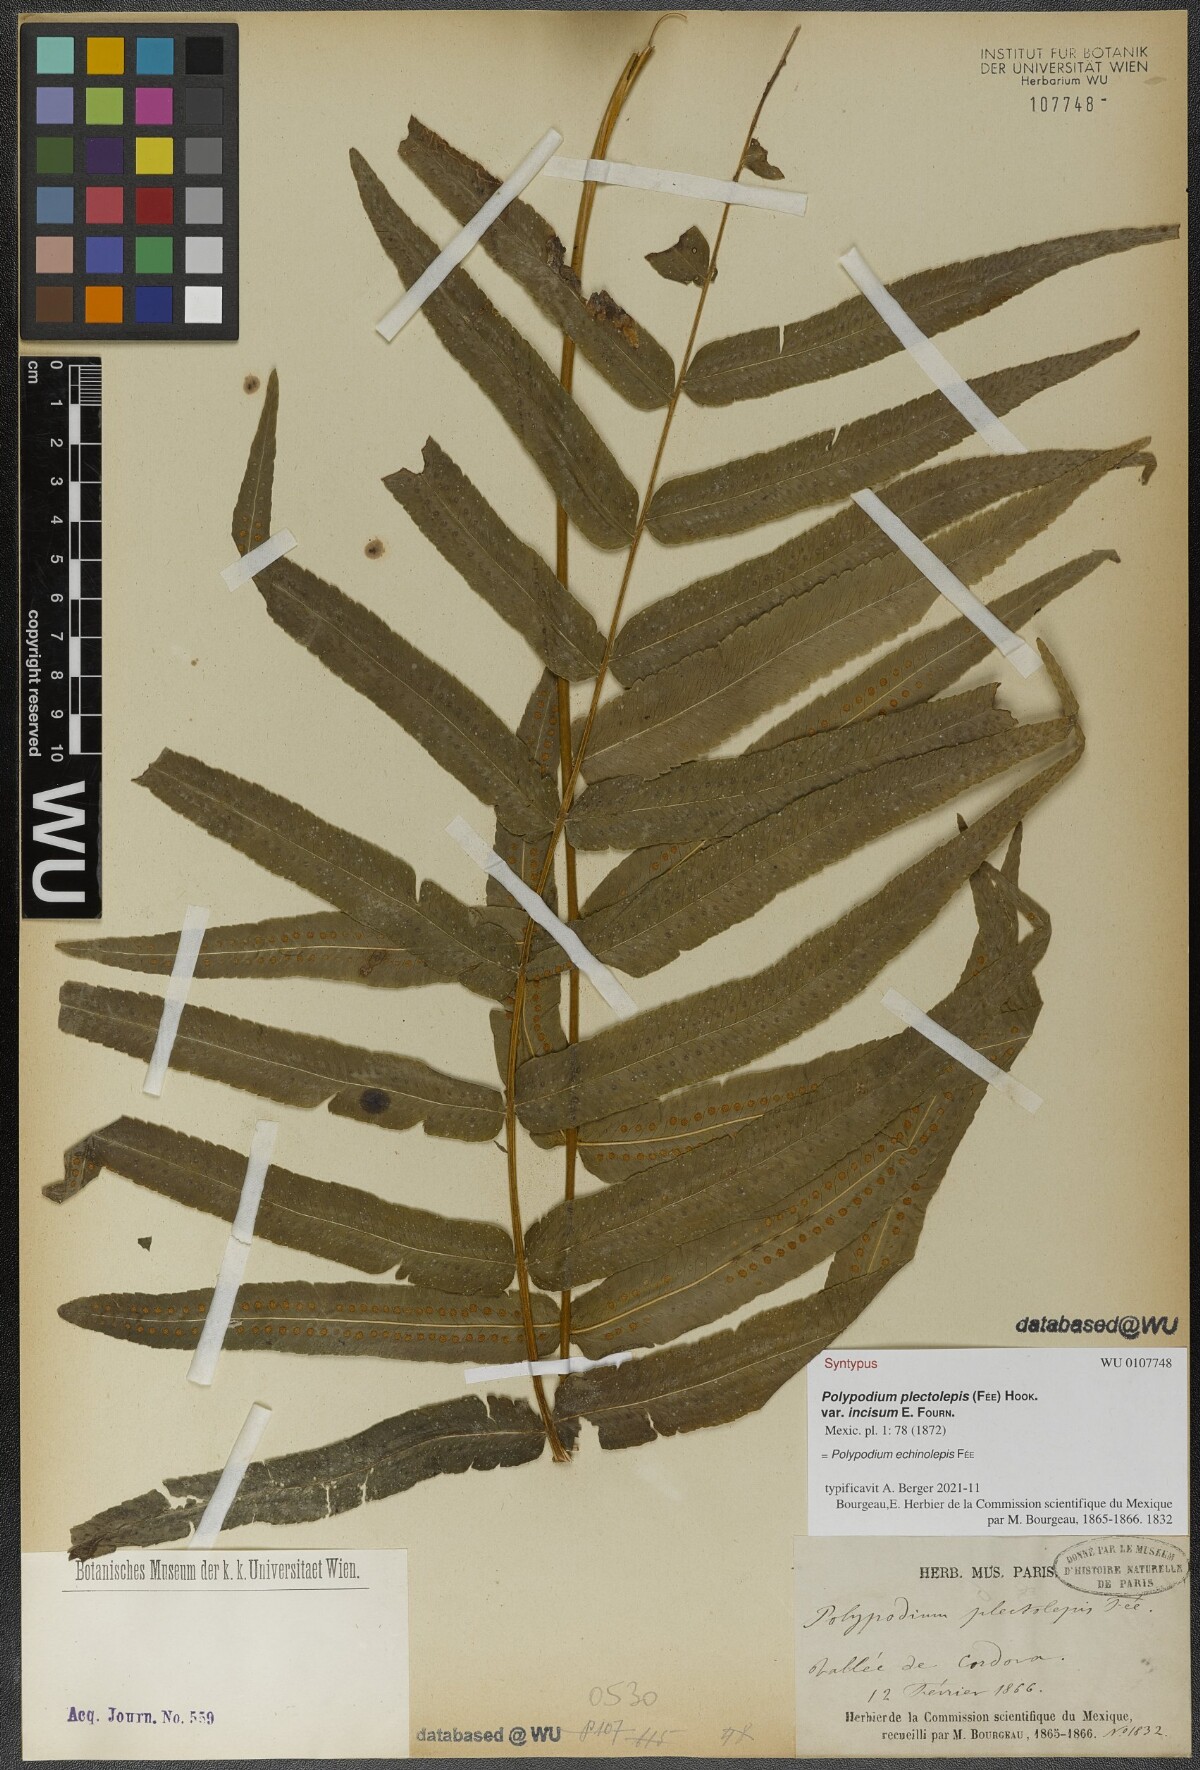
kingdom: Plantae
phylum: Tracheophyta
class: Polypodiopsida
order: Polypodiales
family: Polypodiaceae
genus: Polypodium
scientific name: Polypodium echinolepis
